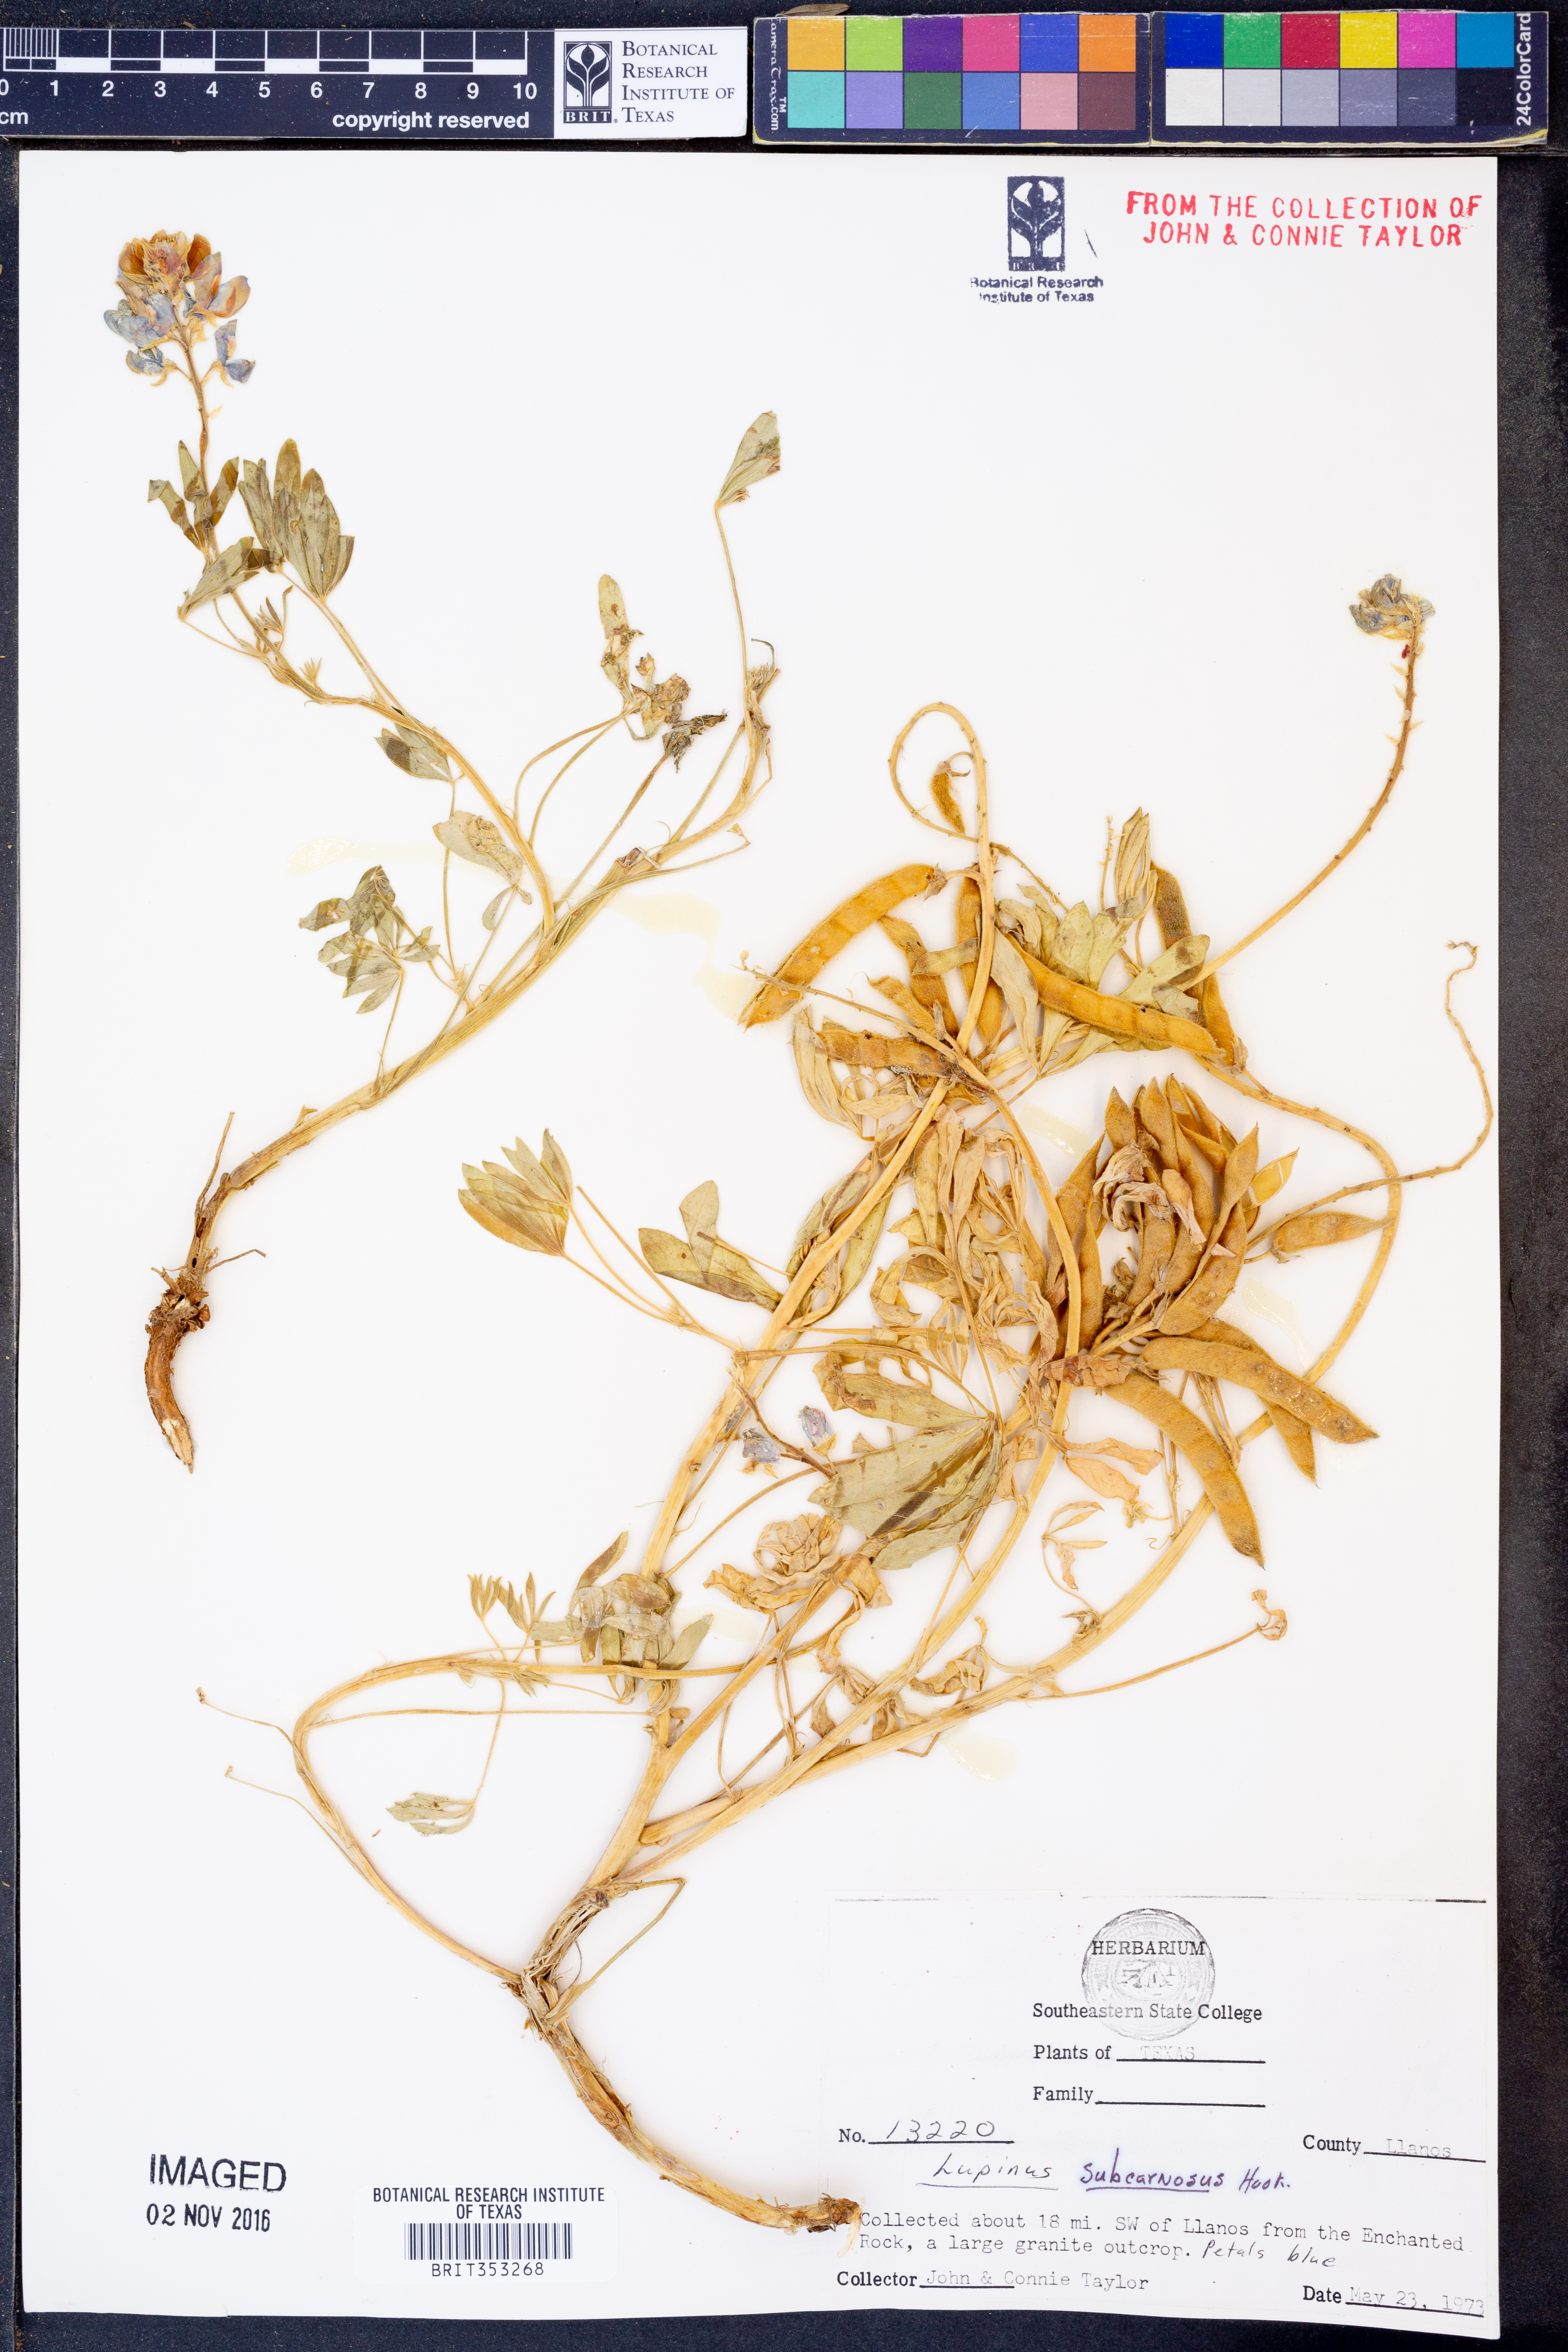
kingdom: Plantae
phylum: Tracheophyta
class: Magnoliopsida
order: Fabales
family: Fabaceae
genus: Lupinus
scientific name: Lupinus subcarnosus
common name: Texas bluebonnet
